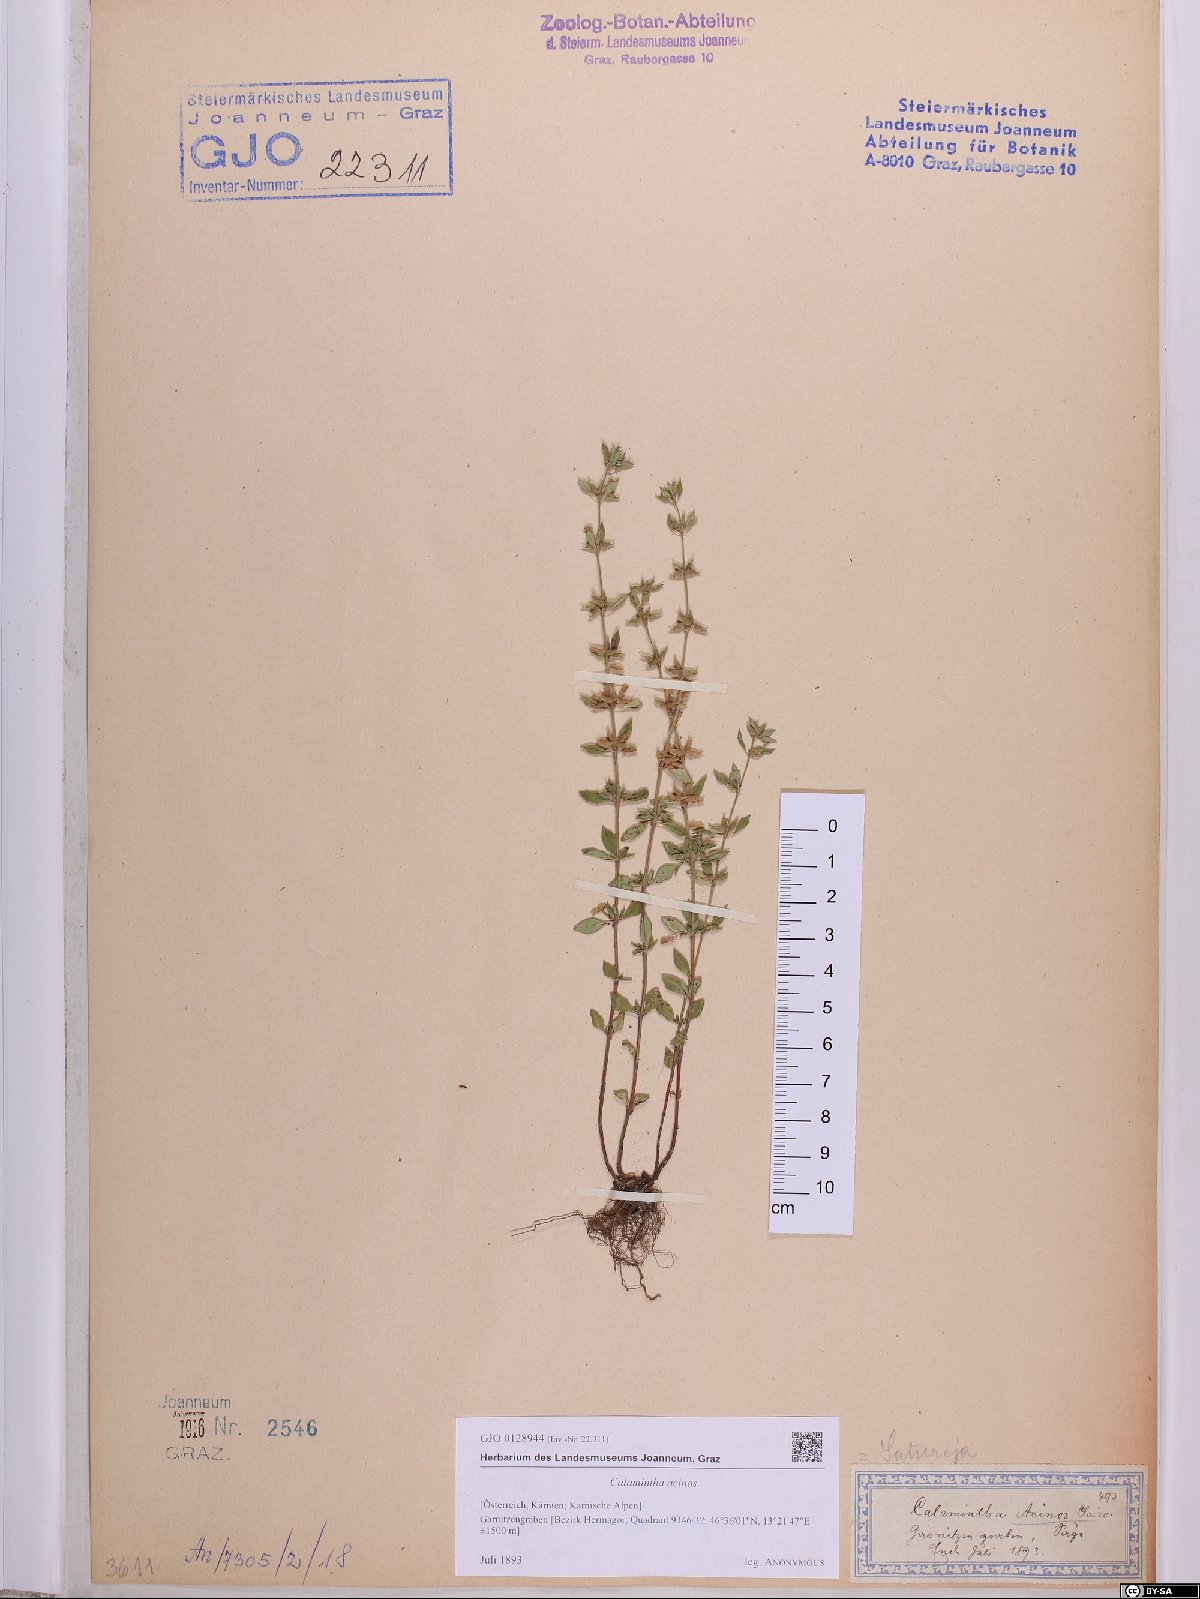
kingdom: Plantae
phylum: Tracheophyta
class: Magnoliopsida
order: Lamiales
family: Lamiaceae
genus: Clinopodium
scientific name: Clinopodium acinos
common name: Basil thyme
